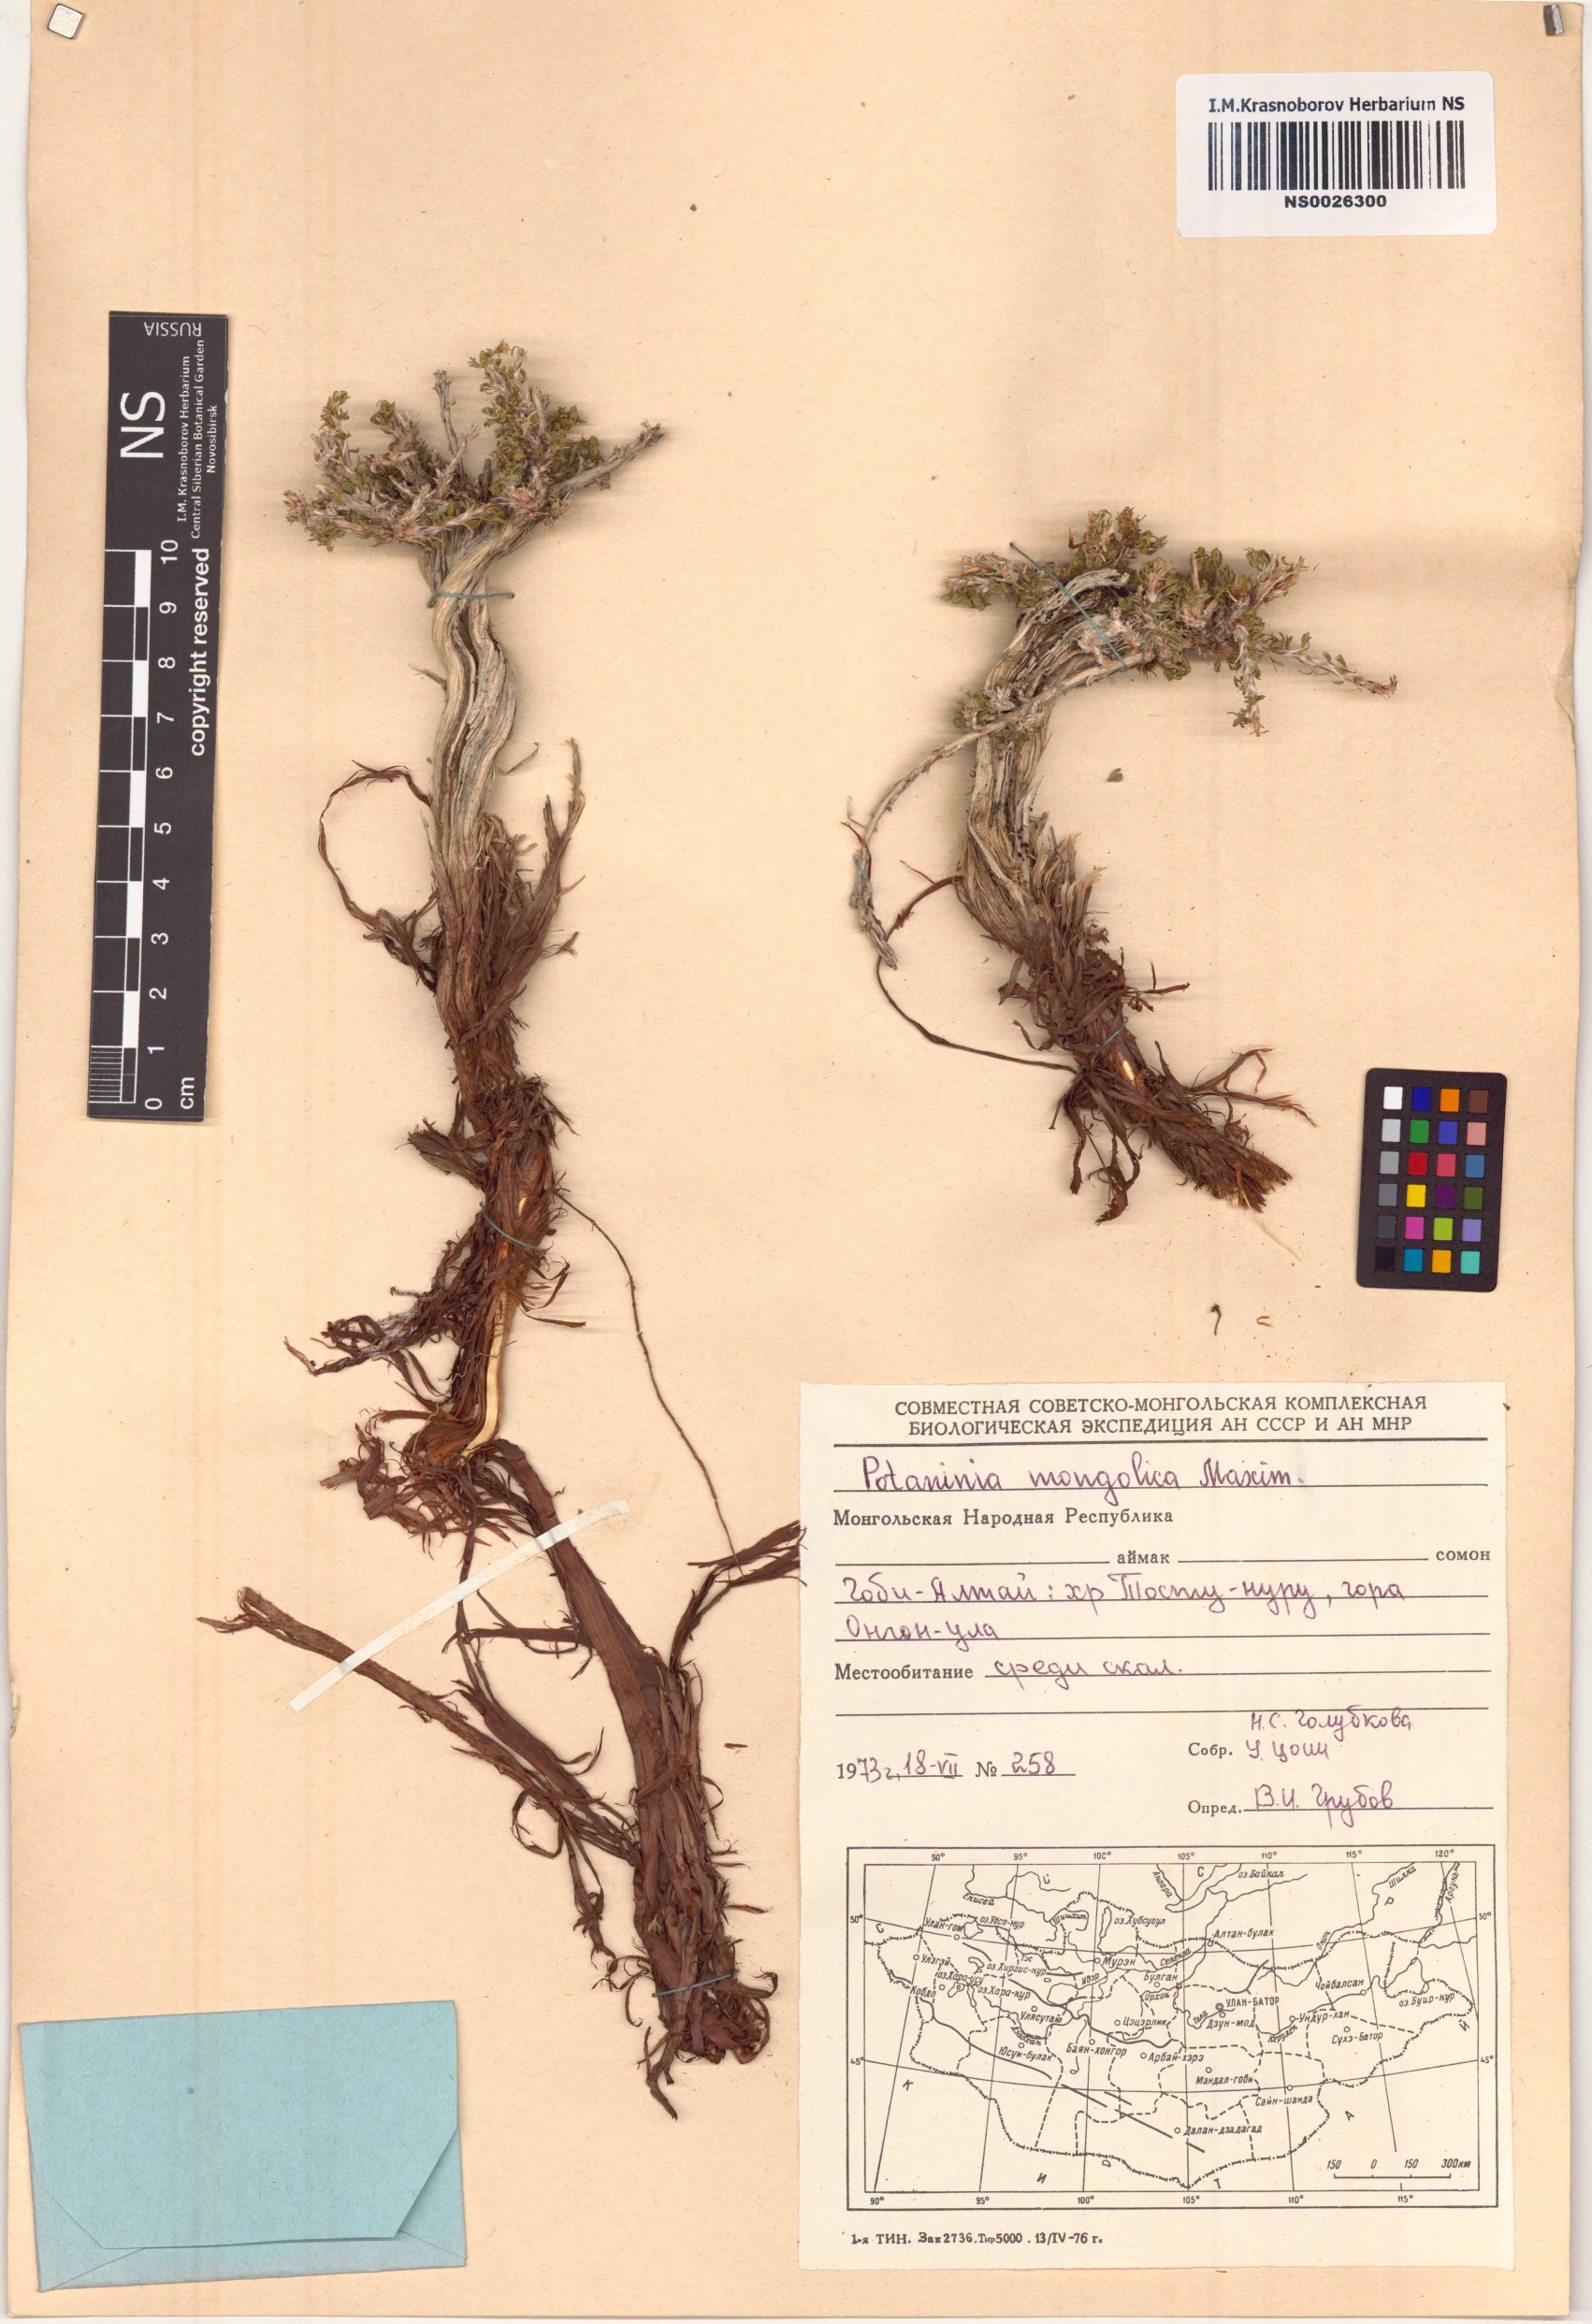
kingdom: Plantae
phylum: Tracheophyta
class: Magnoliopsida
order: Rosales
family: Rosaceae
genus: Potaninia
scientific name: Potaninia mongolica
